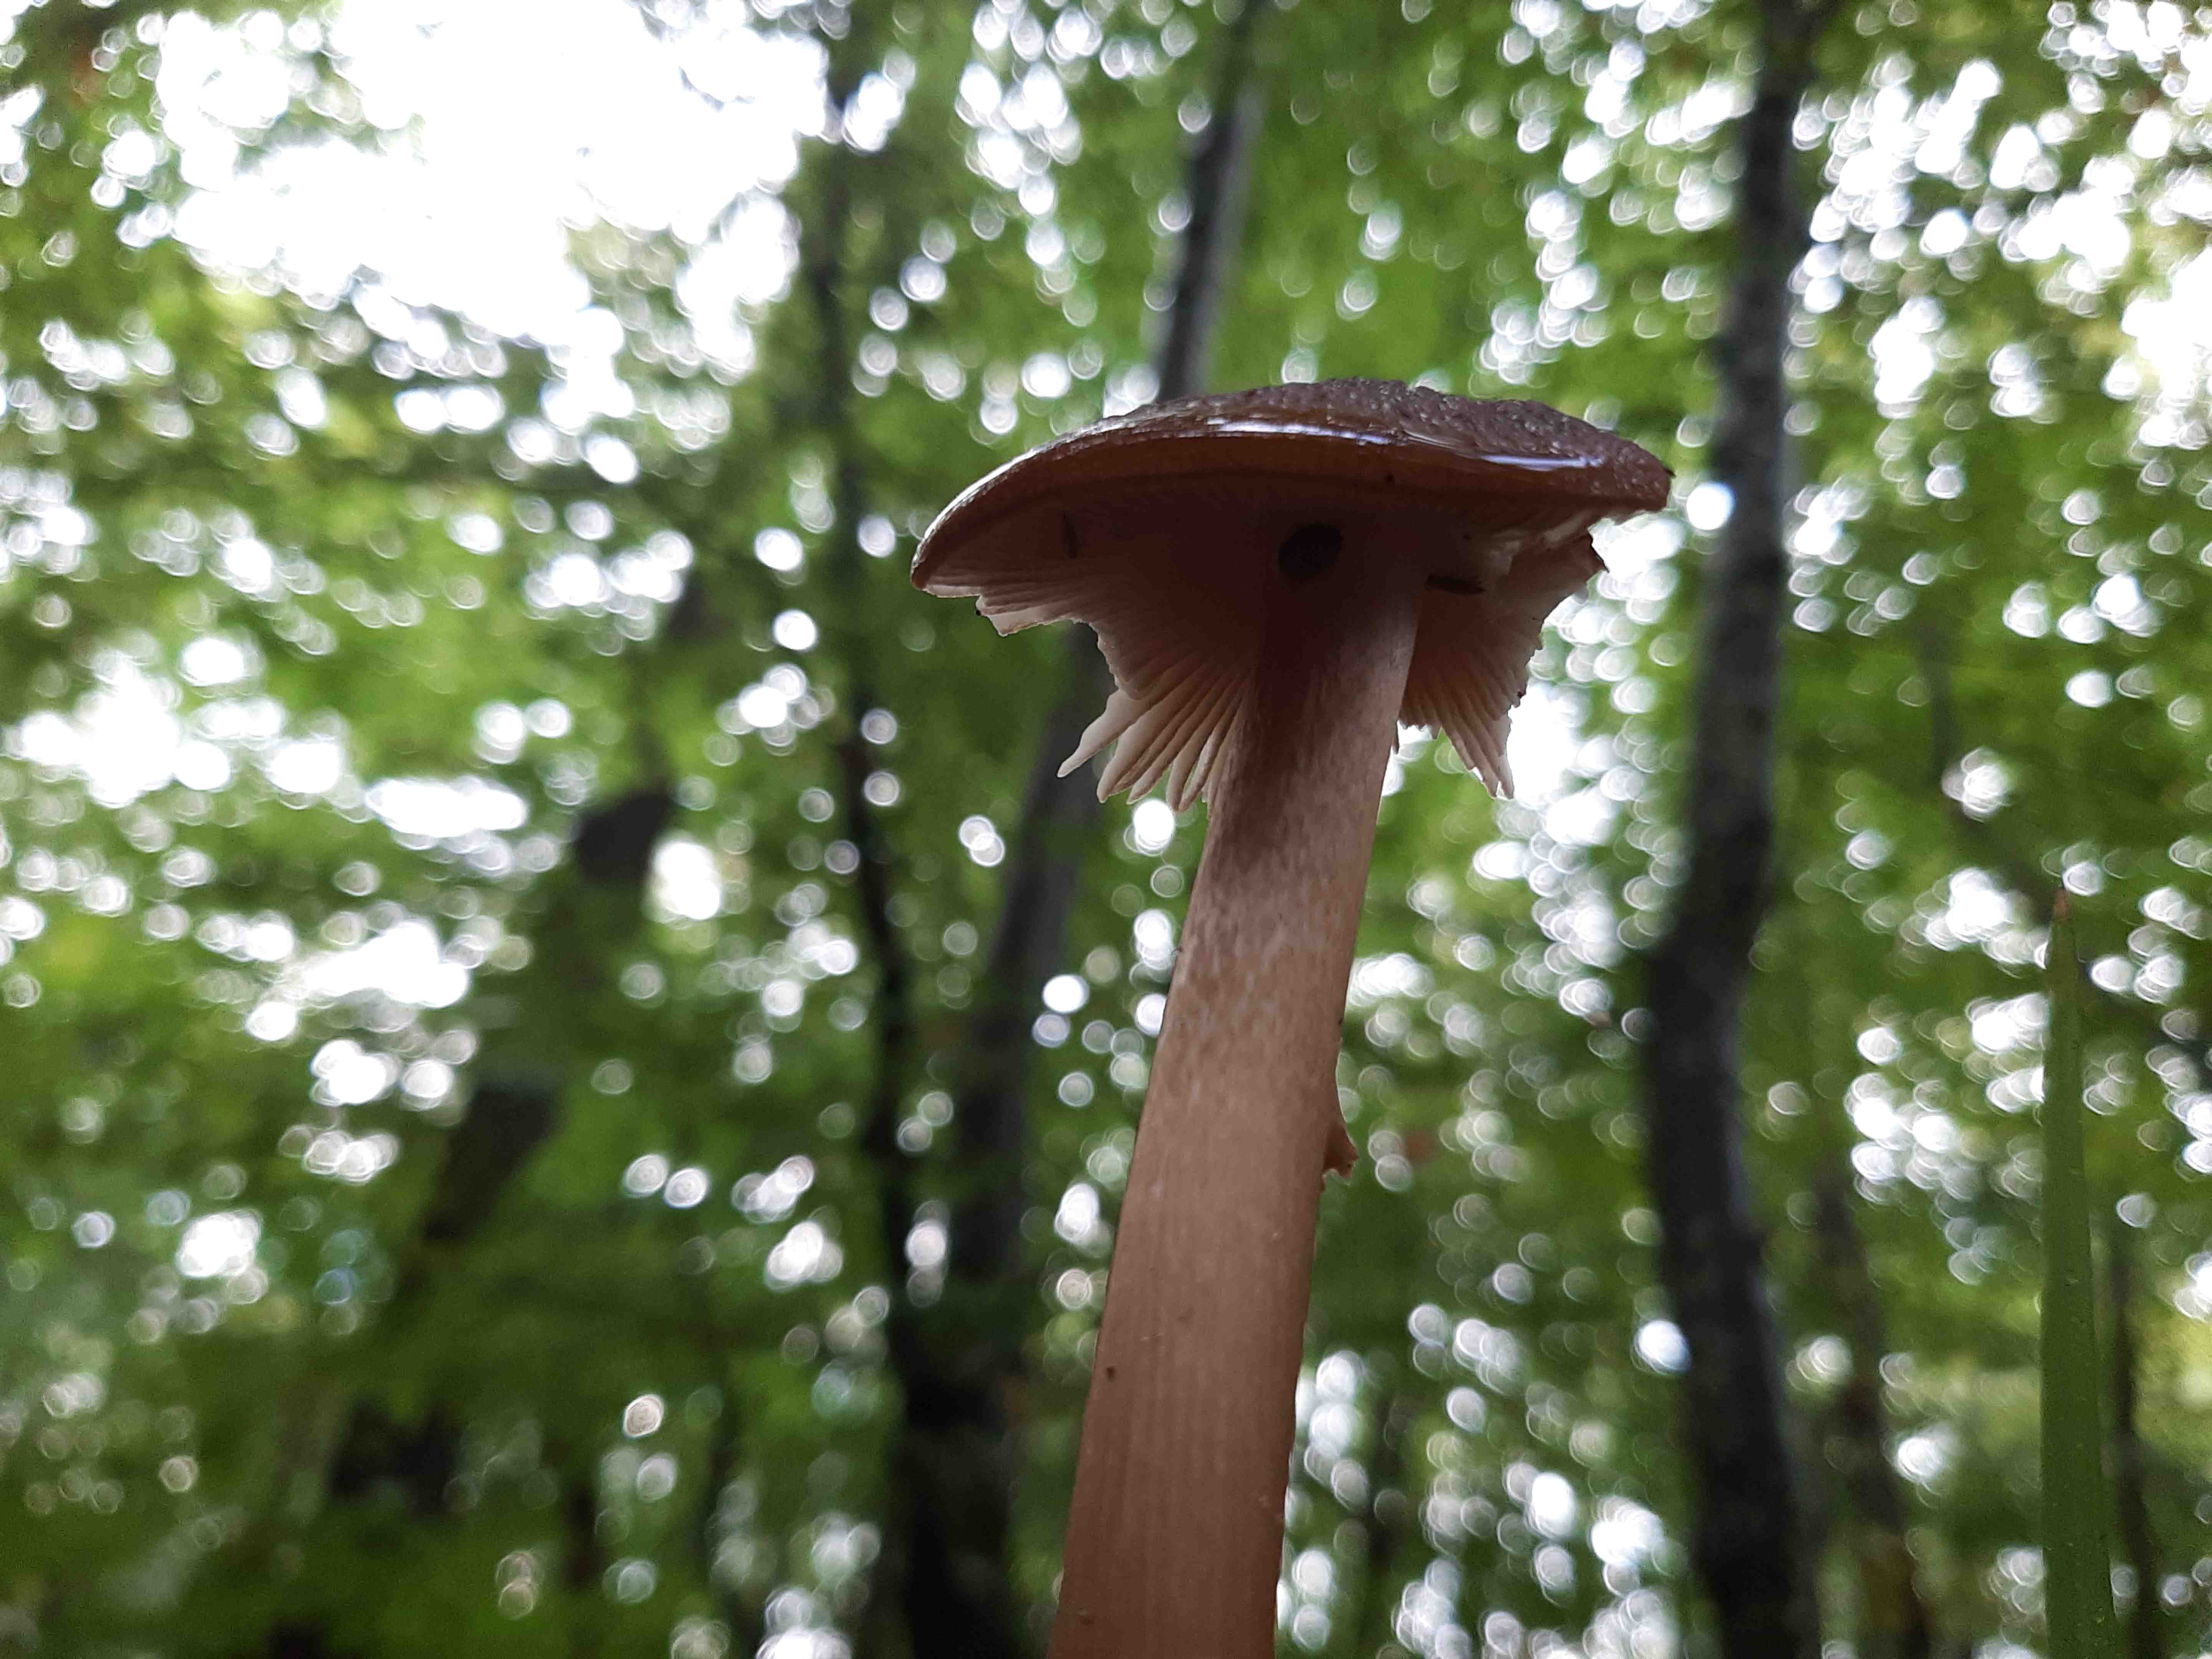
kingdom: Fungi
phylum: Basidiomycota
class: Agaricomycetes
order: Agaricales
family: Physalacriaceae
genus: Hymenopellis
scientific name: Hymenopellis radicata
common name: almindelig pælerodshat
